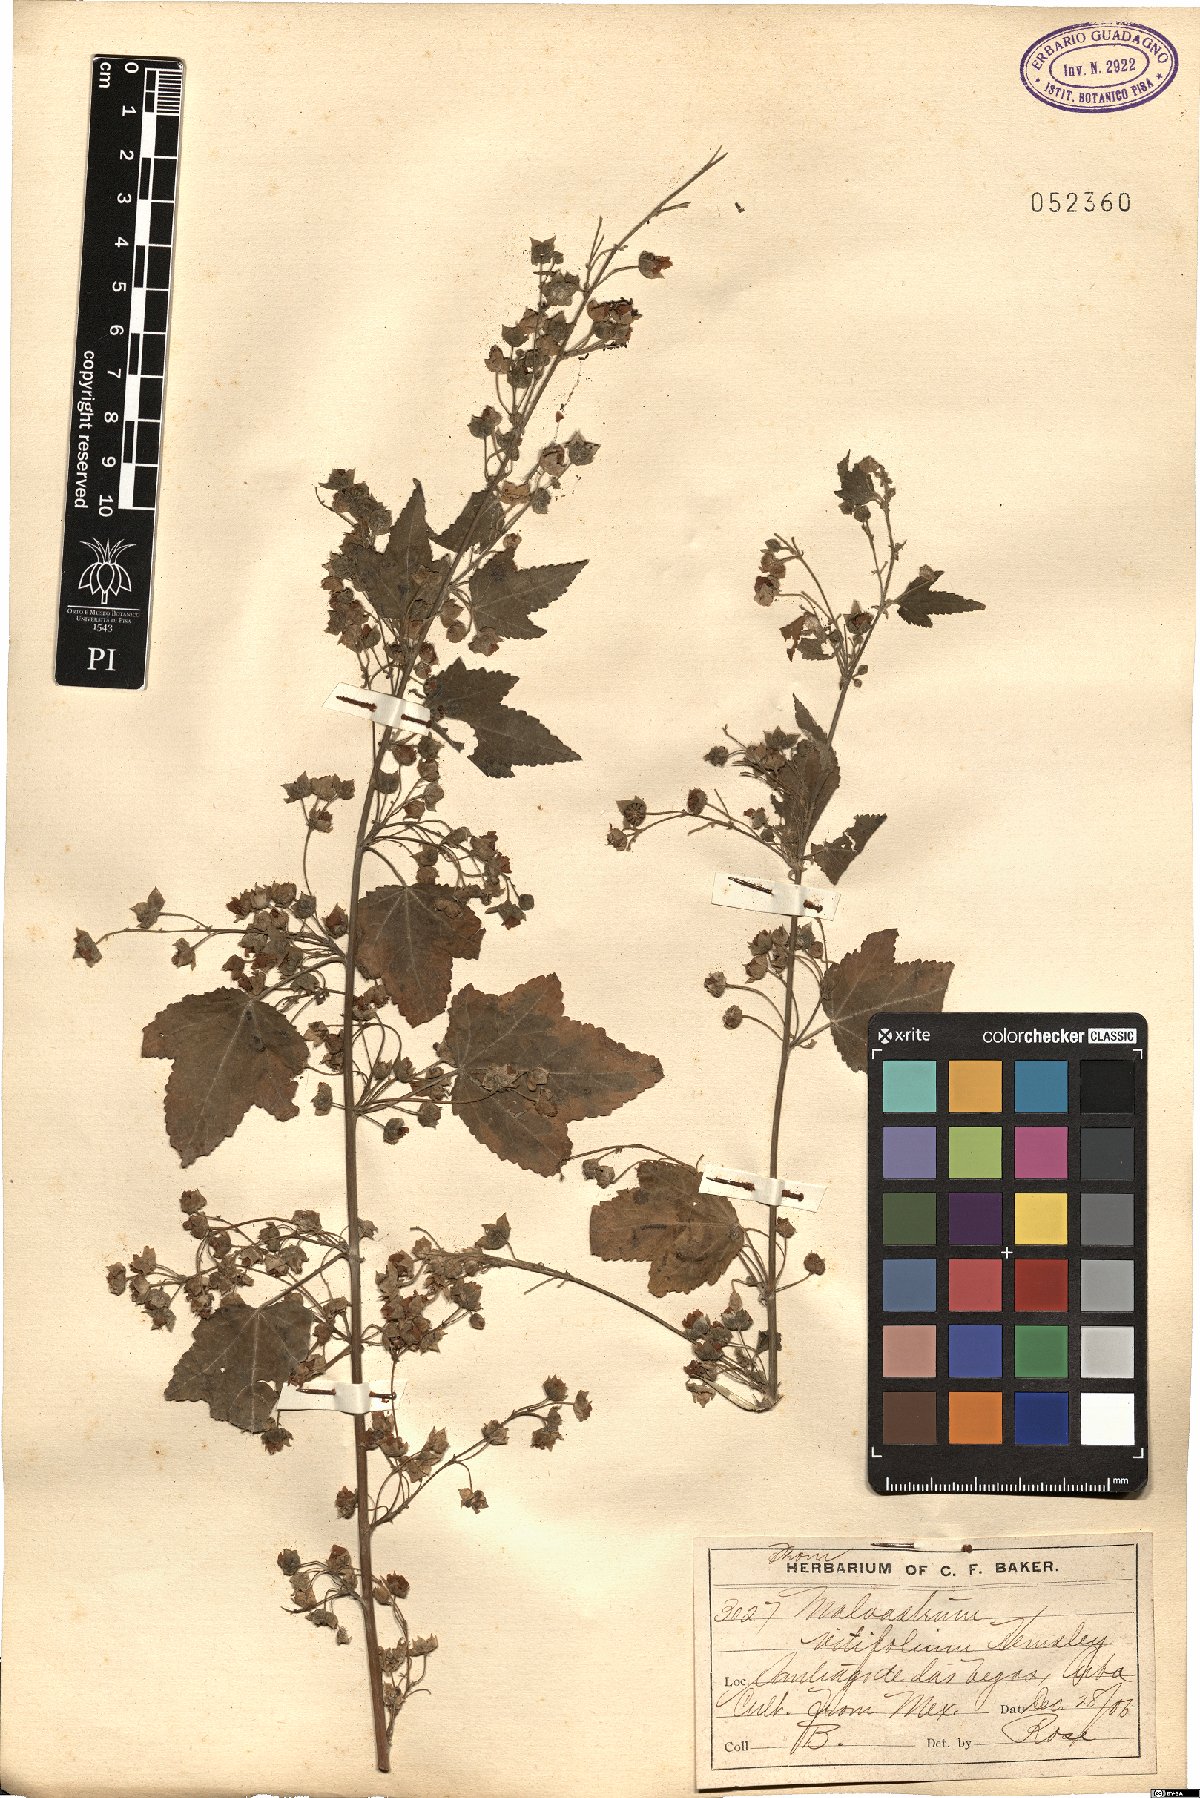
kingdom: Plantae
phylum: Tracheophyta
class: Magnoliopsida
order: Malvales
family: Malvaceae
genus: Kearnemalvastrum
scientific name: Kearnemalvastrum lacteum
